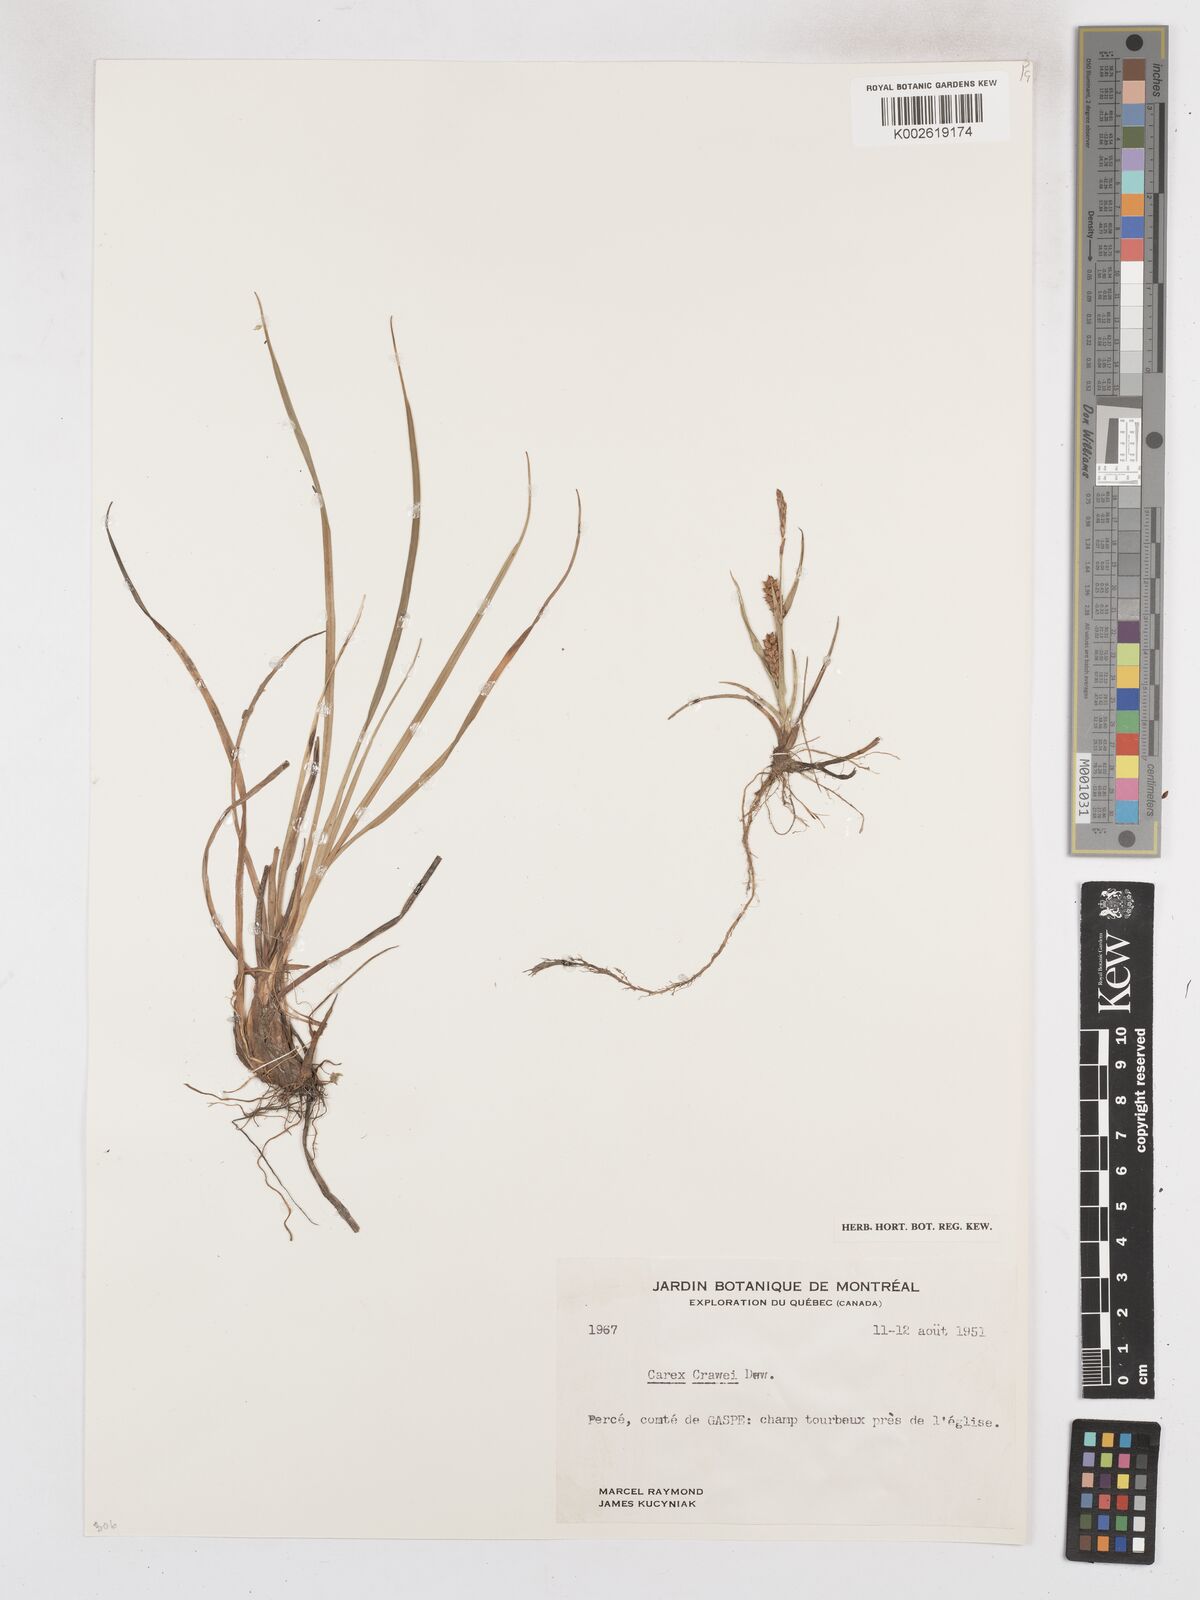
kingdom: Plantae
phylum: Tracheophyta
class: Liliopsida
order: Poales
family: Cyperaceae
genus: Carex
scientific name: Carex crawei
